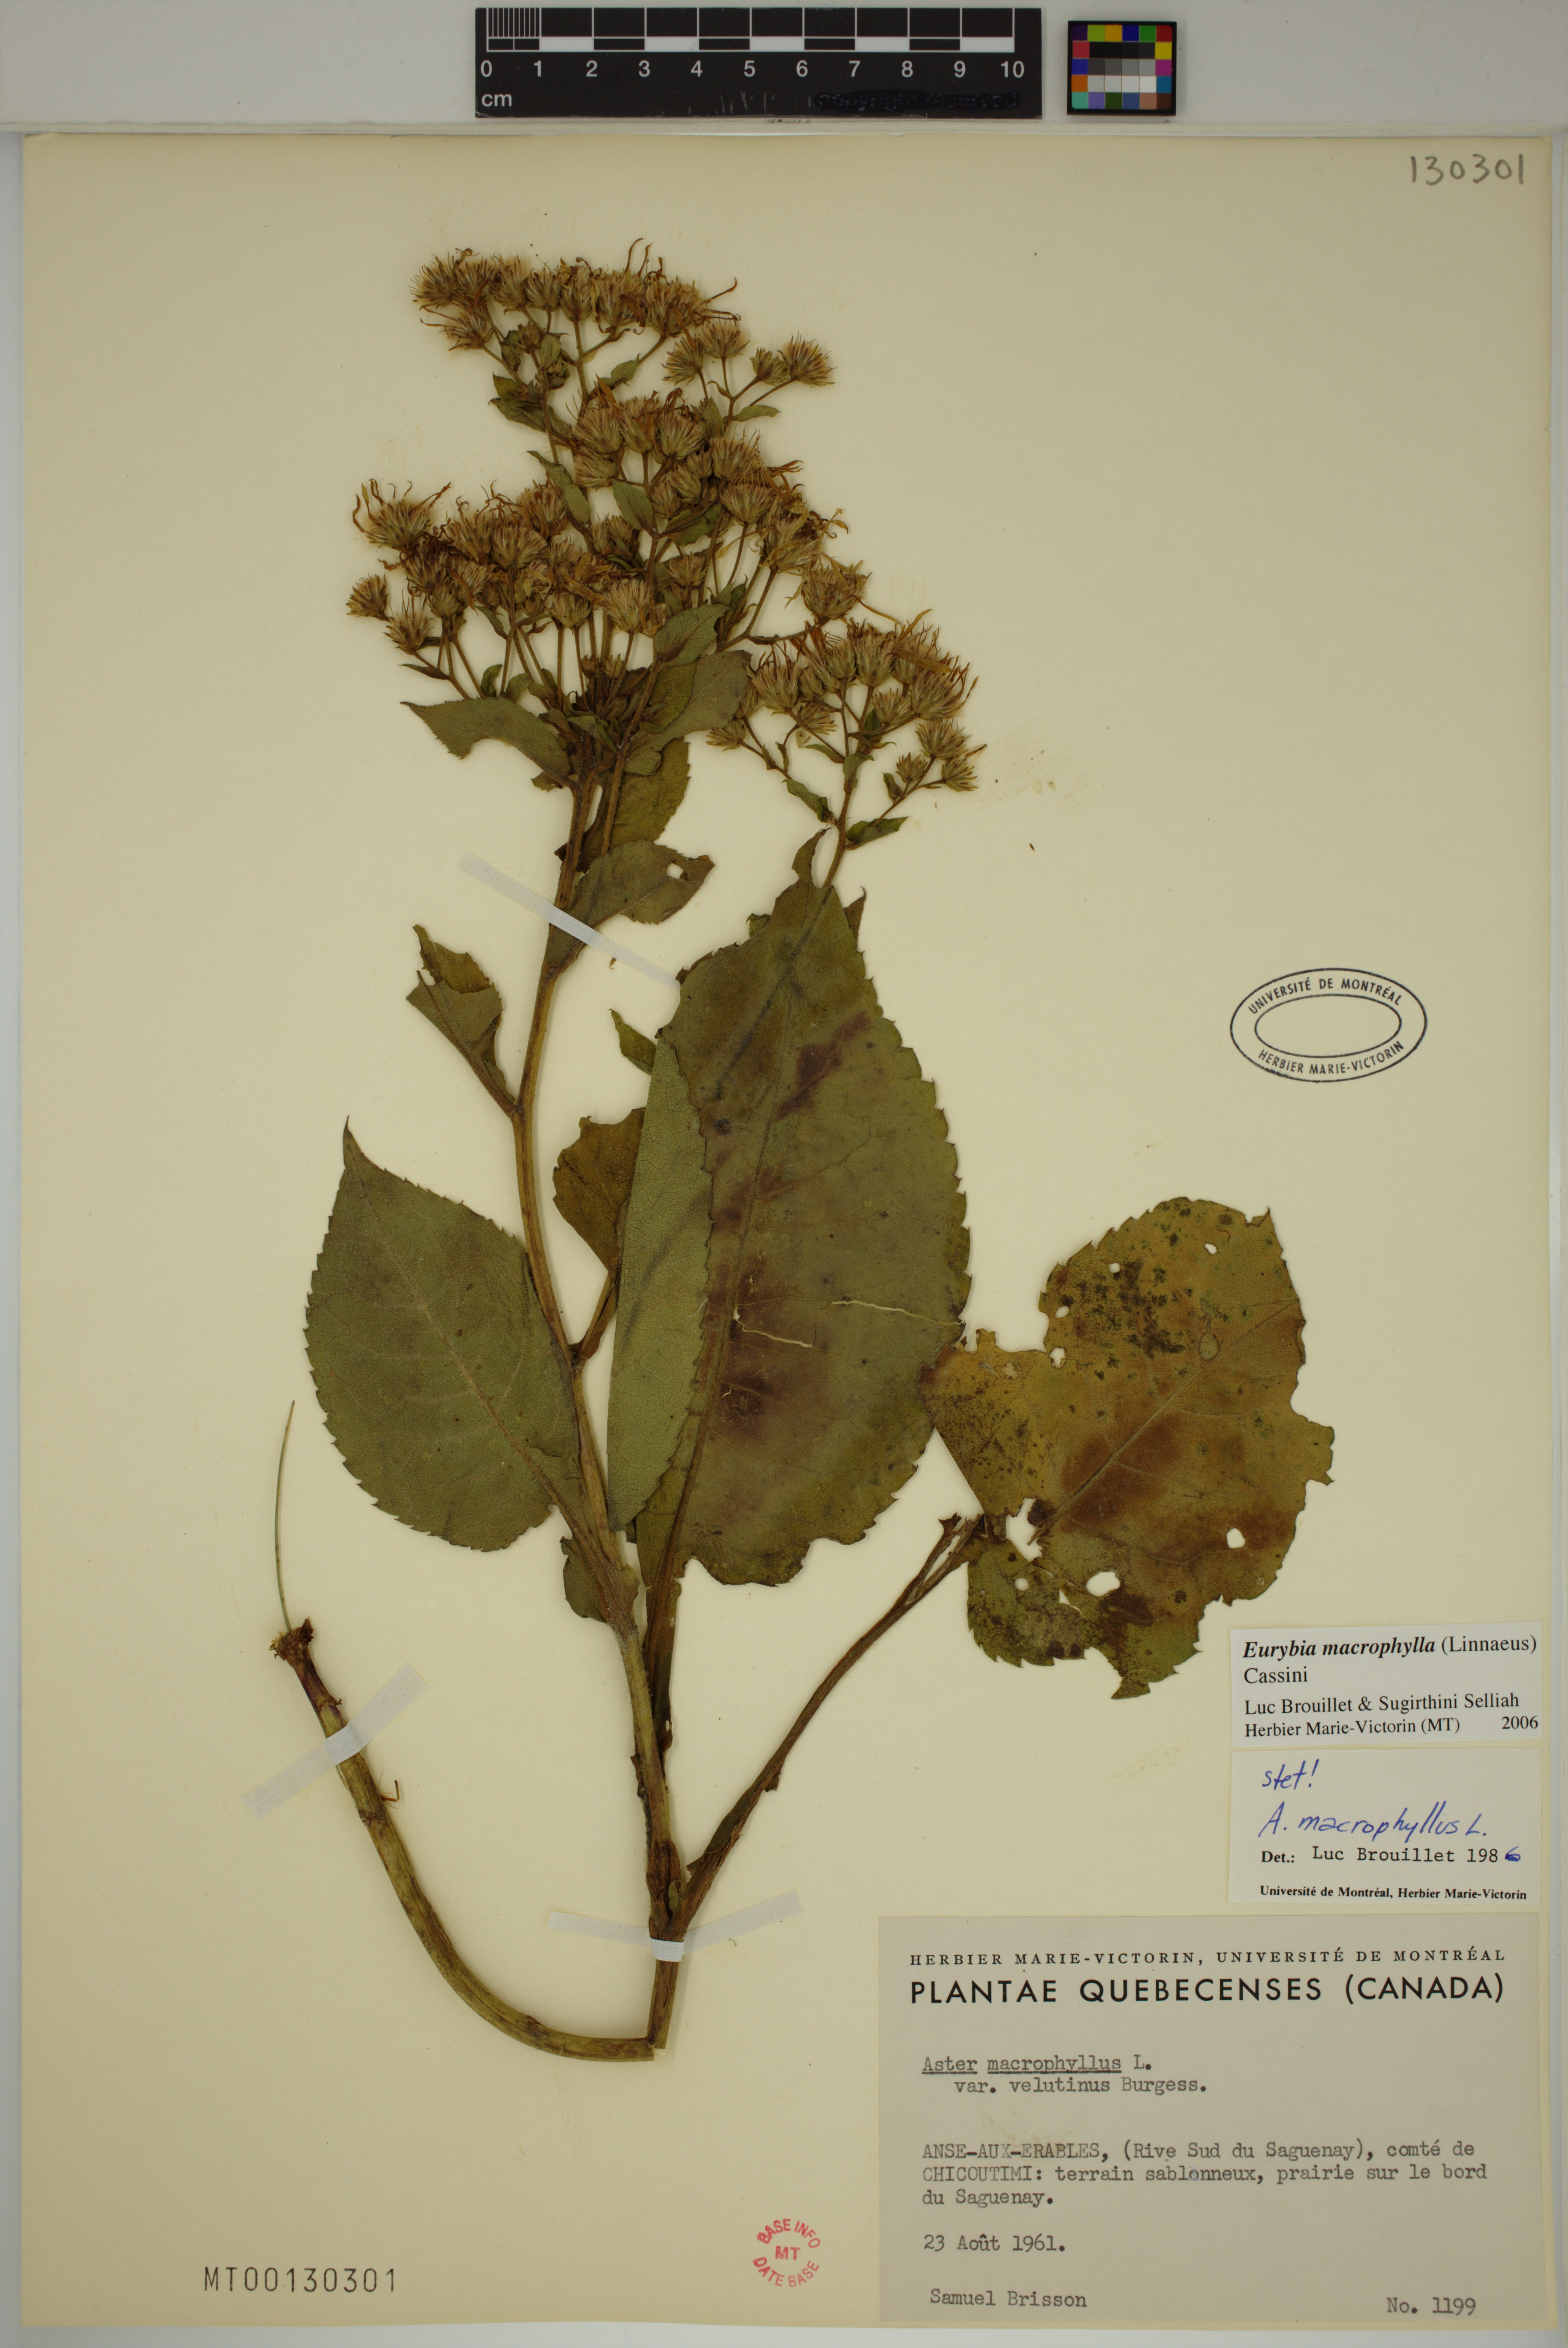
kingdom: Plantae
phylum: Tracheophyta
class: Magnoliopsida
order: Asterales
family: Asteraceae
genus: Eurybia
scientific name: Eurybia macrophylla
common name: Big-leaved aster
